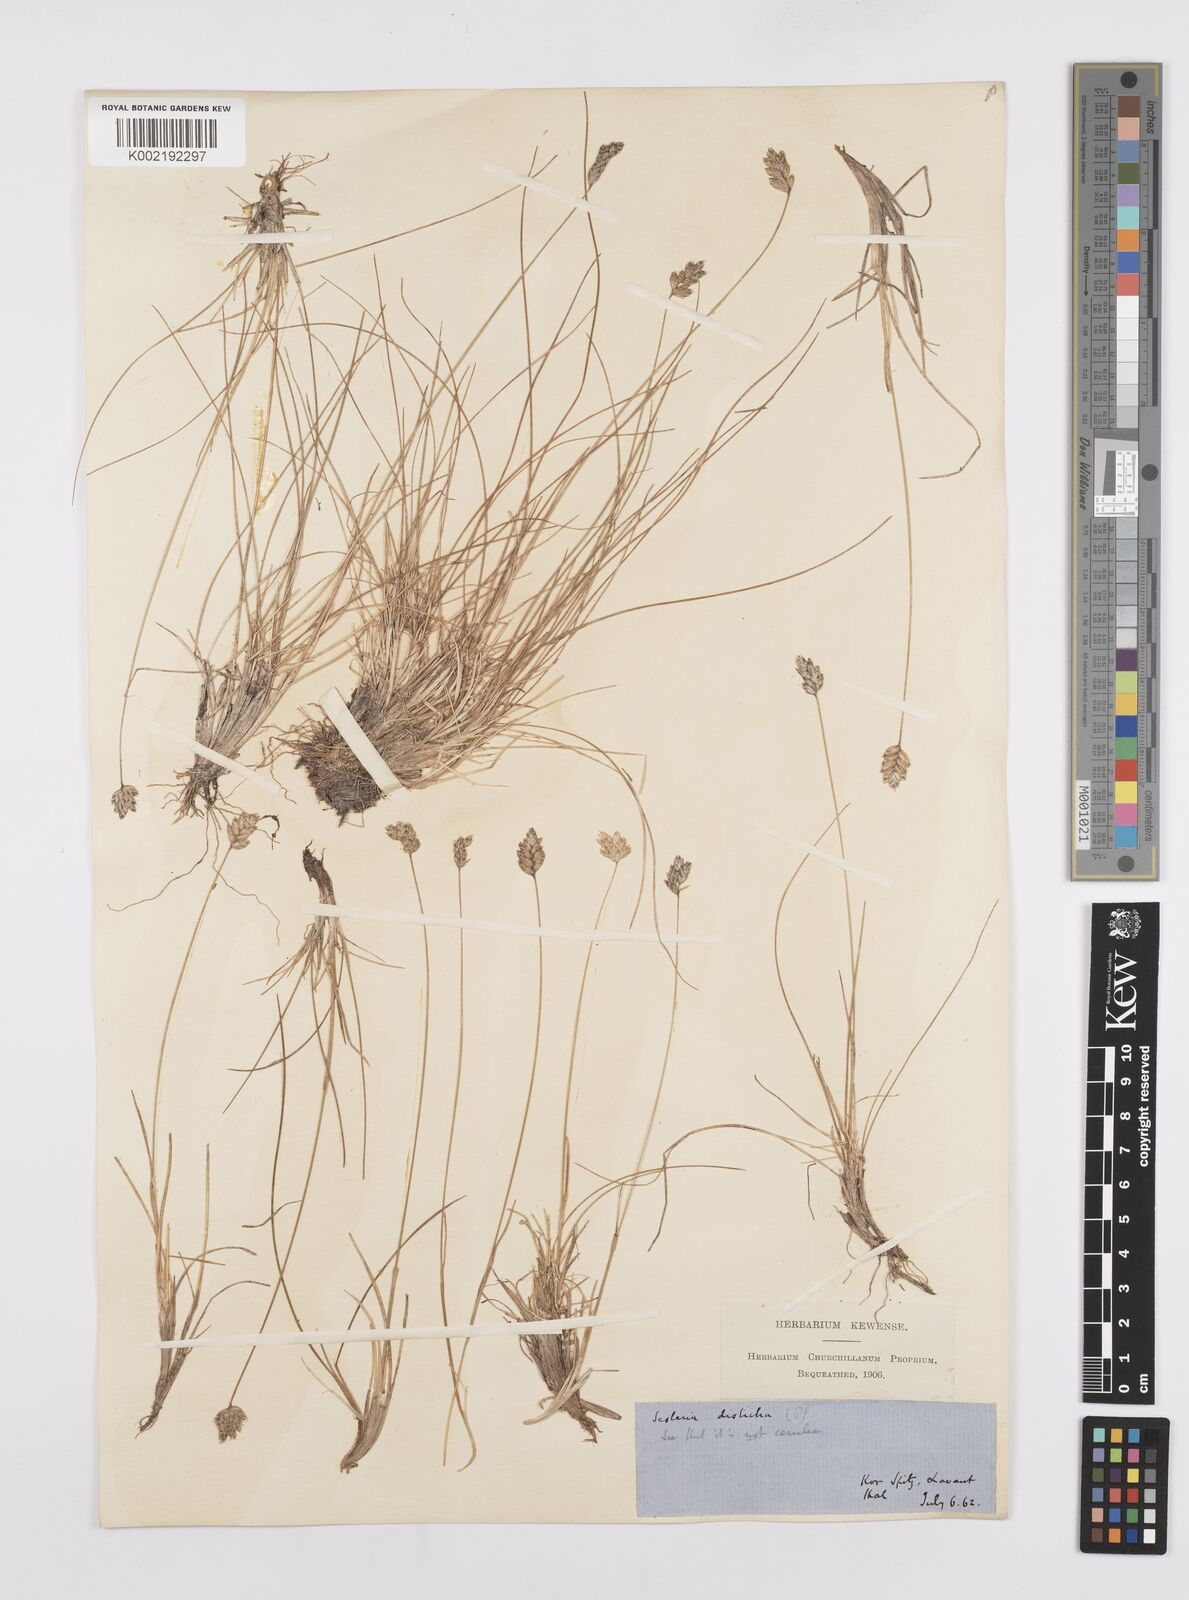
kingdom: Plantae
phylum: Tracheophyta
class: Liliopsida
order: Poales
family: Poaceae
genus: Oreochloa
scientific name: Oreochloa disticha
